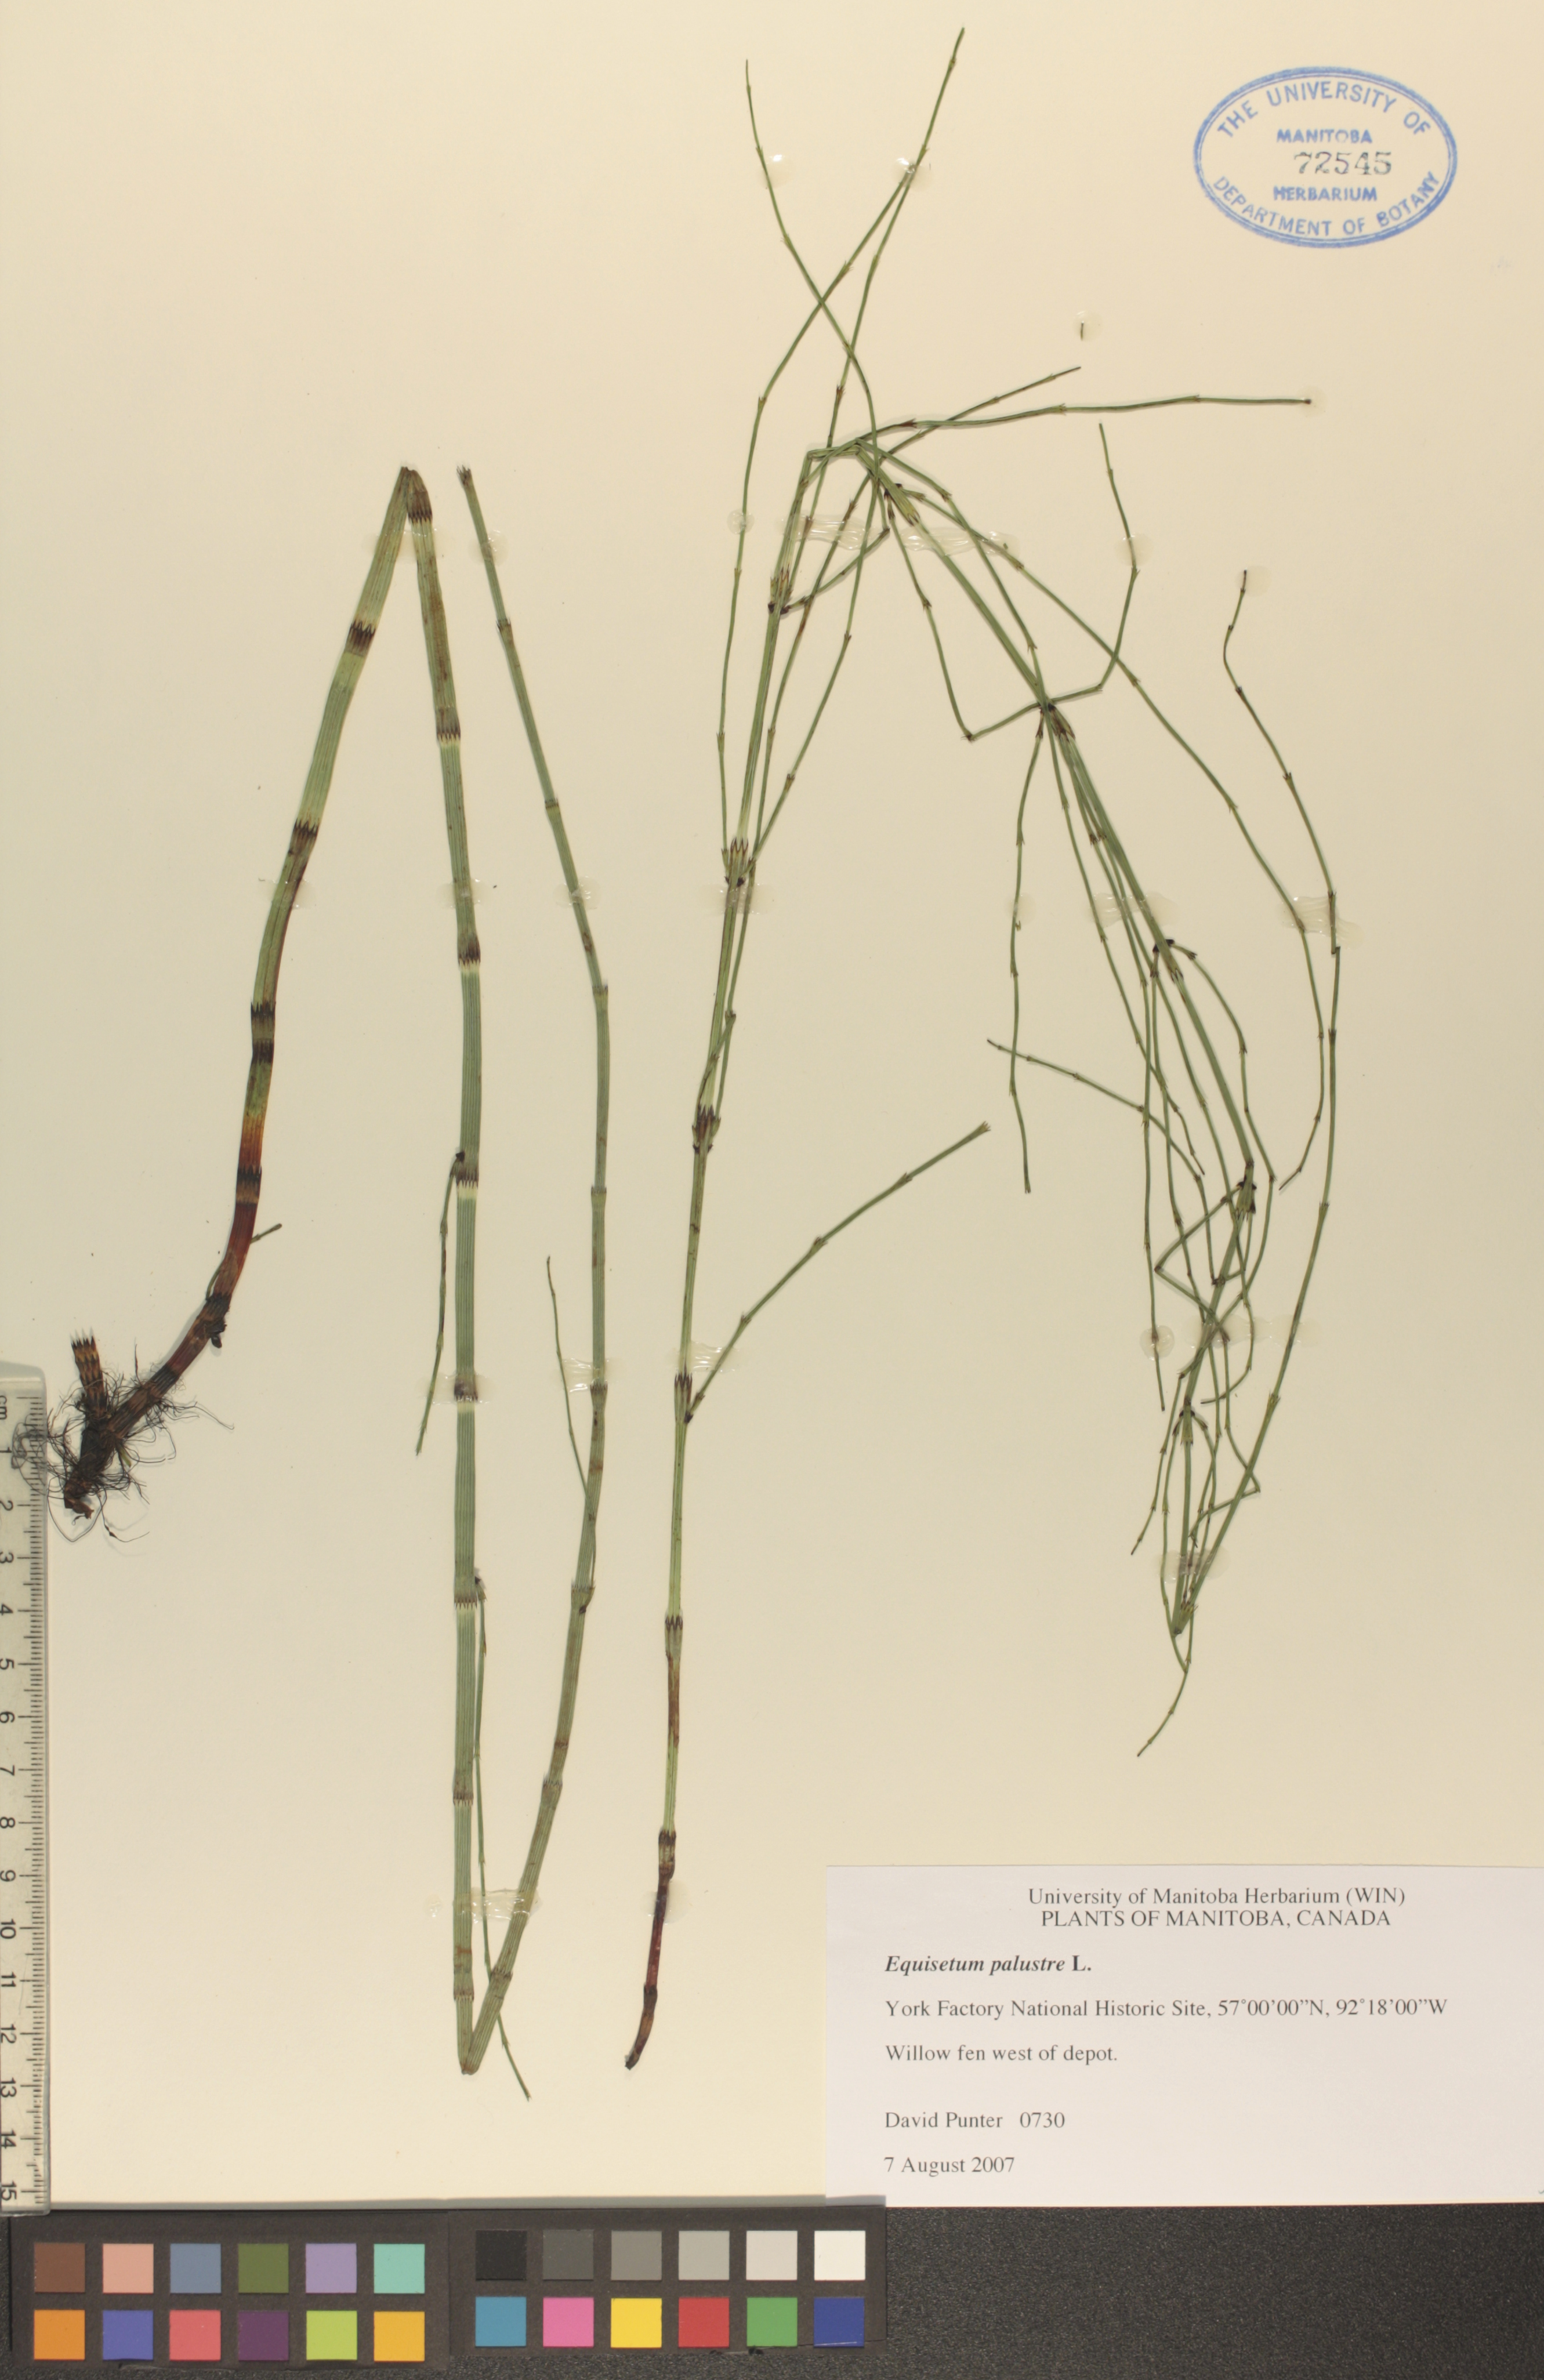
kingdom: Plantae
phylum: Tracheophyta
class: Polypodiopsida
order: Equisetales
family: Equisetaceae
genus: Equisetum
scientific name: Equisetum palustre
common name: Marsh horsetail
